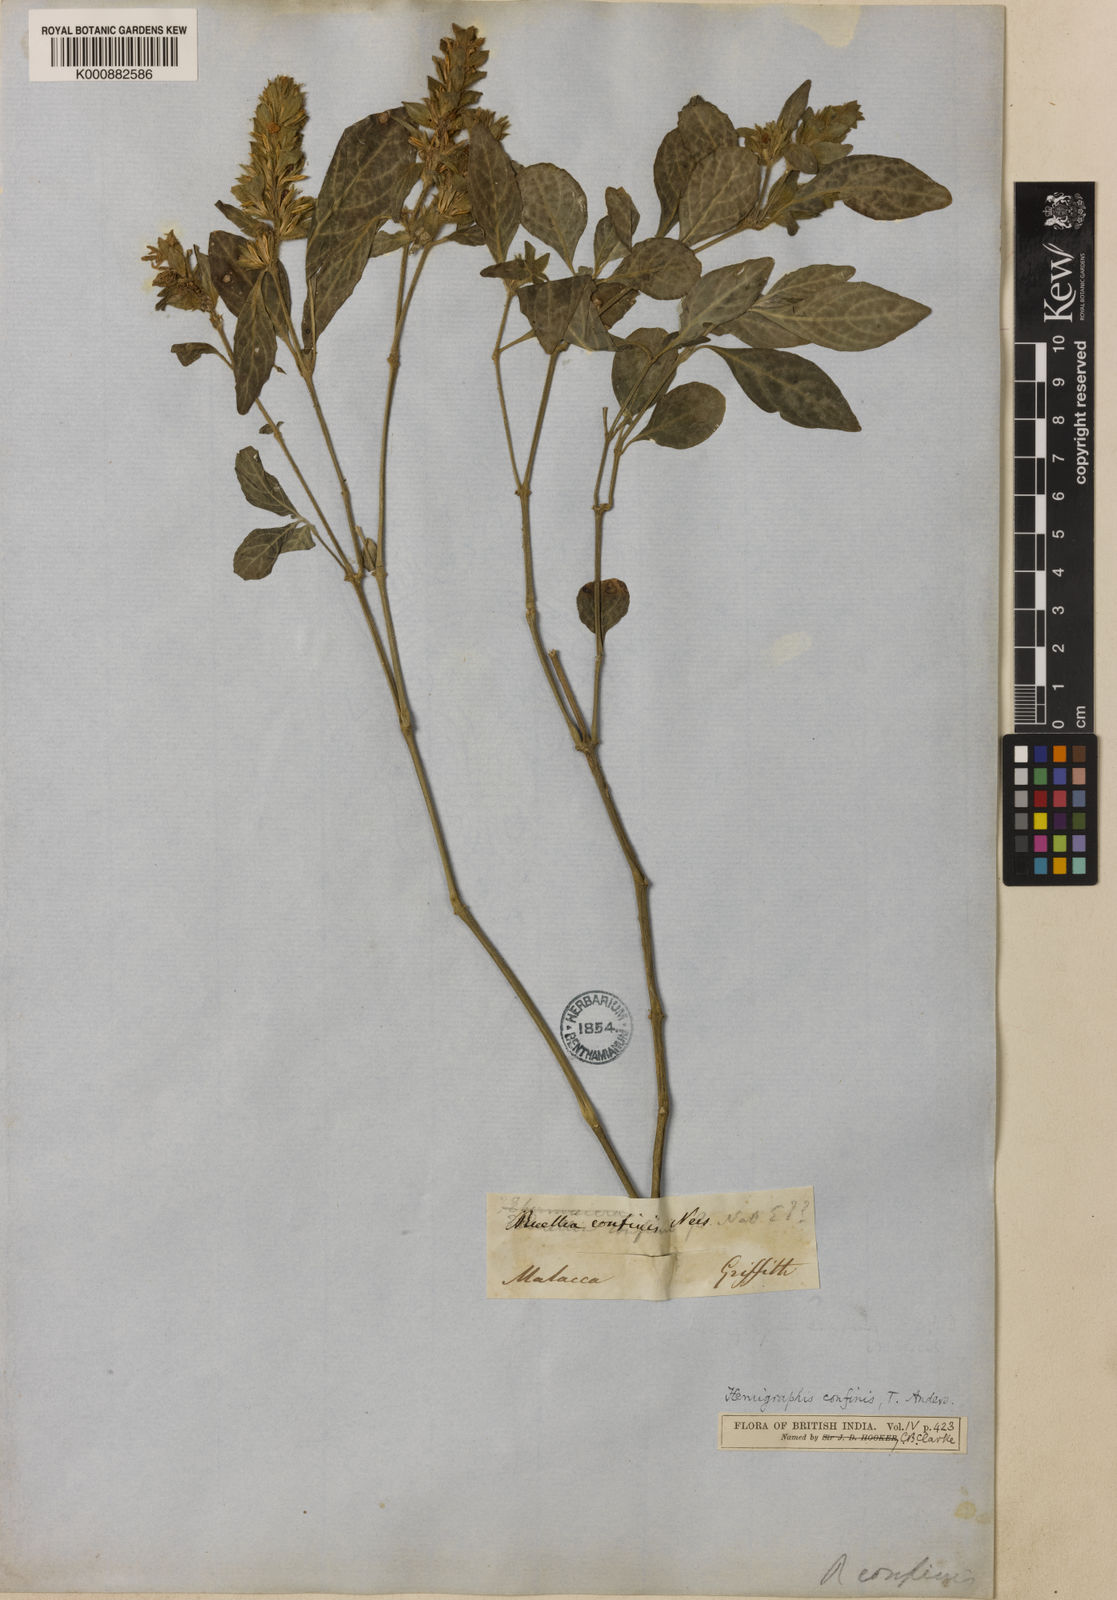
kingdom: Plantae
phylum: Tracheophyta
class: Magnoliopsida
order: Lamiales
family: Acanthaceae
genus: Strobilanthes
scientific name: Strobilanthes brunelloides
